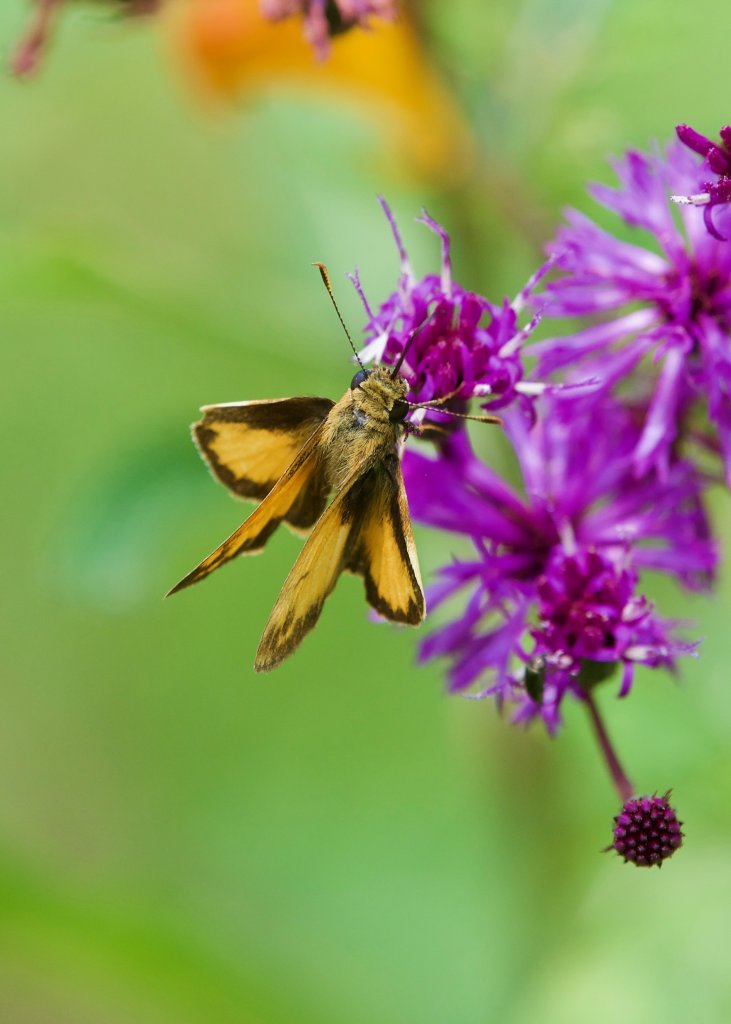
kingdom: Animalia
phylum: Arthropoda
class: Insecta
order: Lepidoptera
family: Hesperiidae
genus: Lon
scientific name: Lon zabulon
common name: Zabulon Skipper
